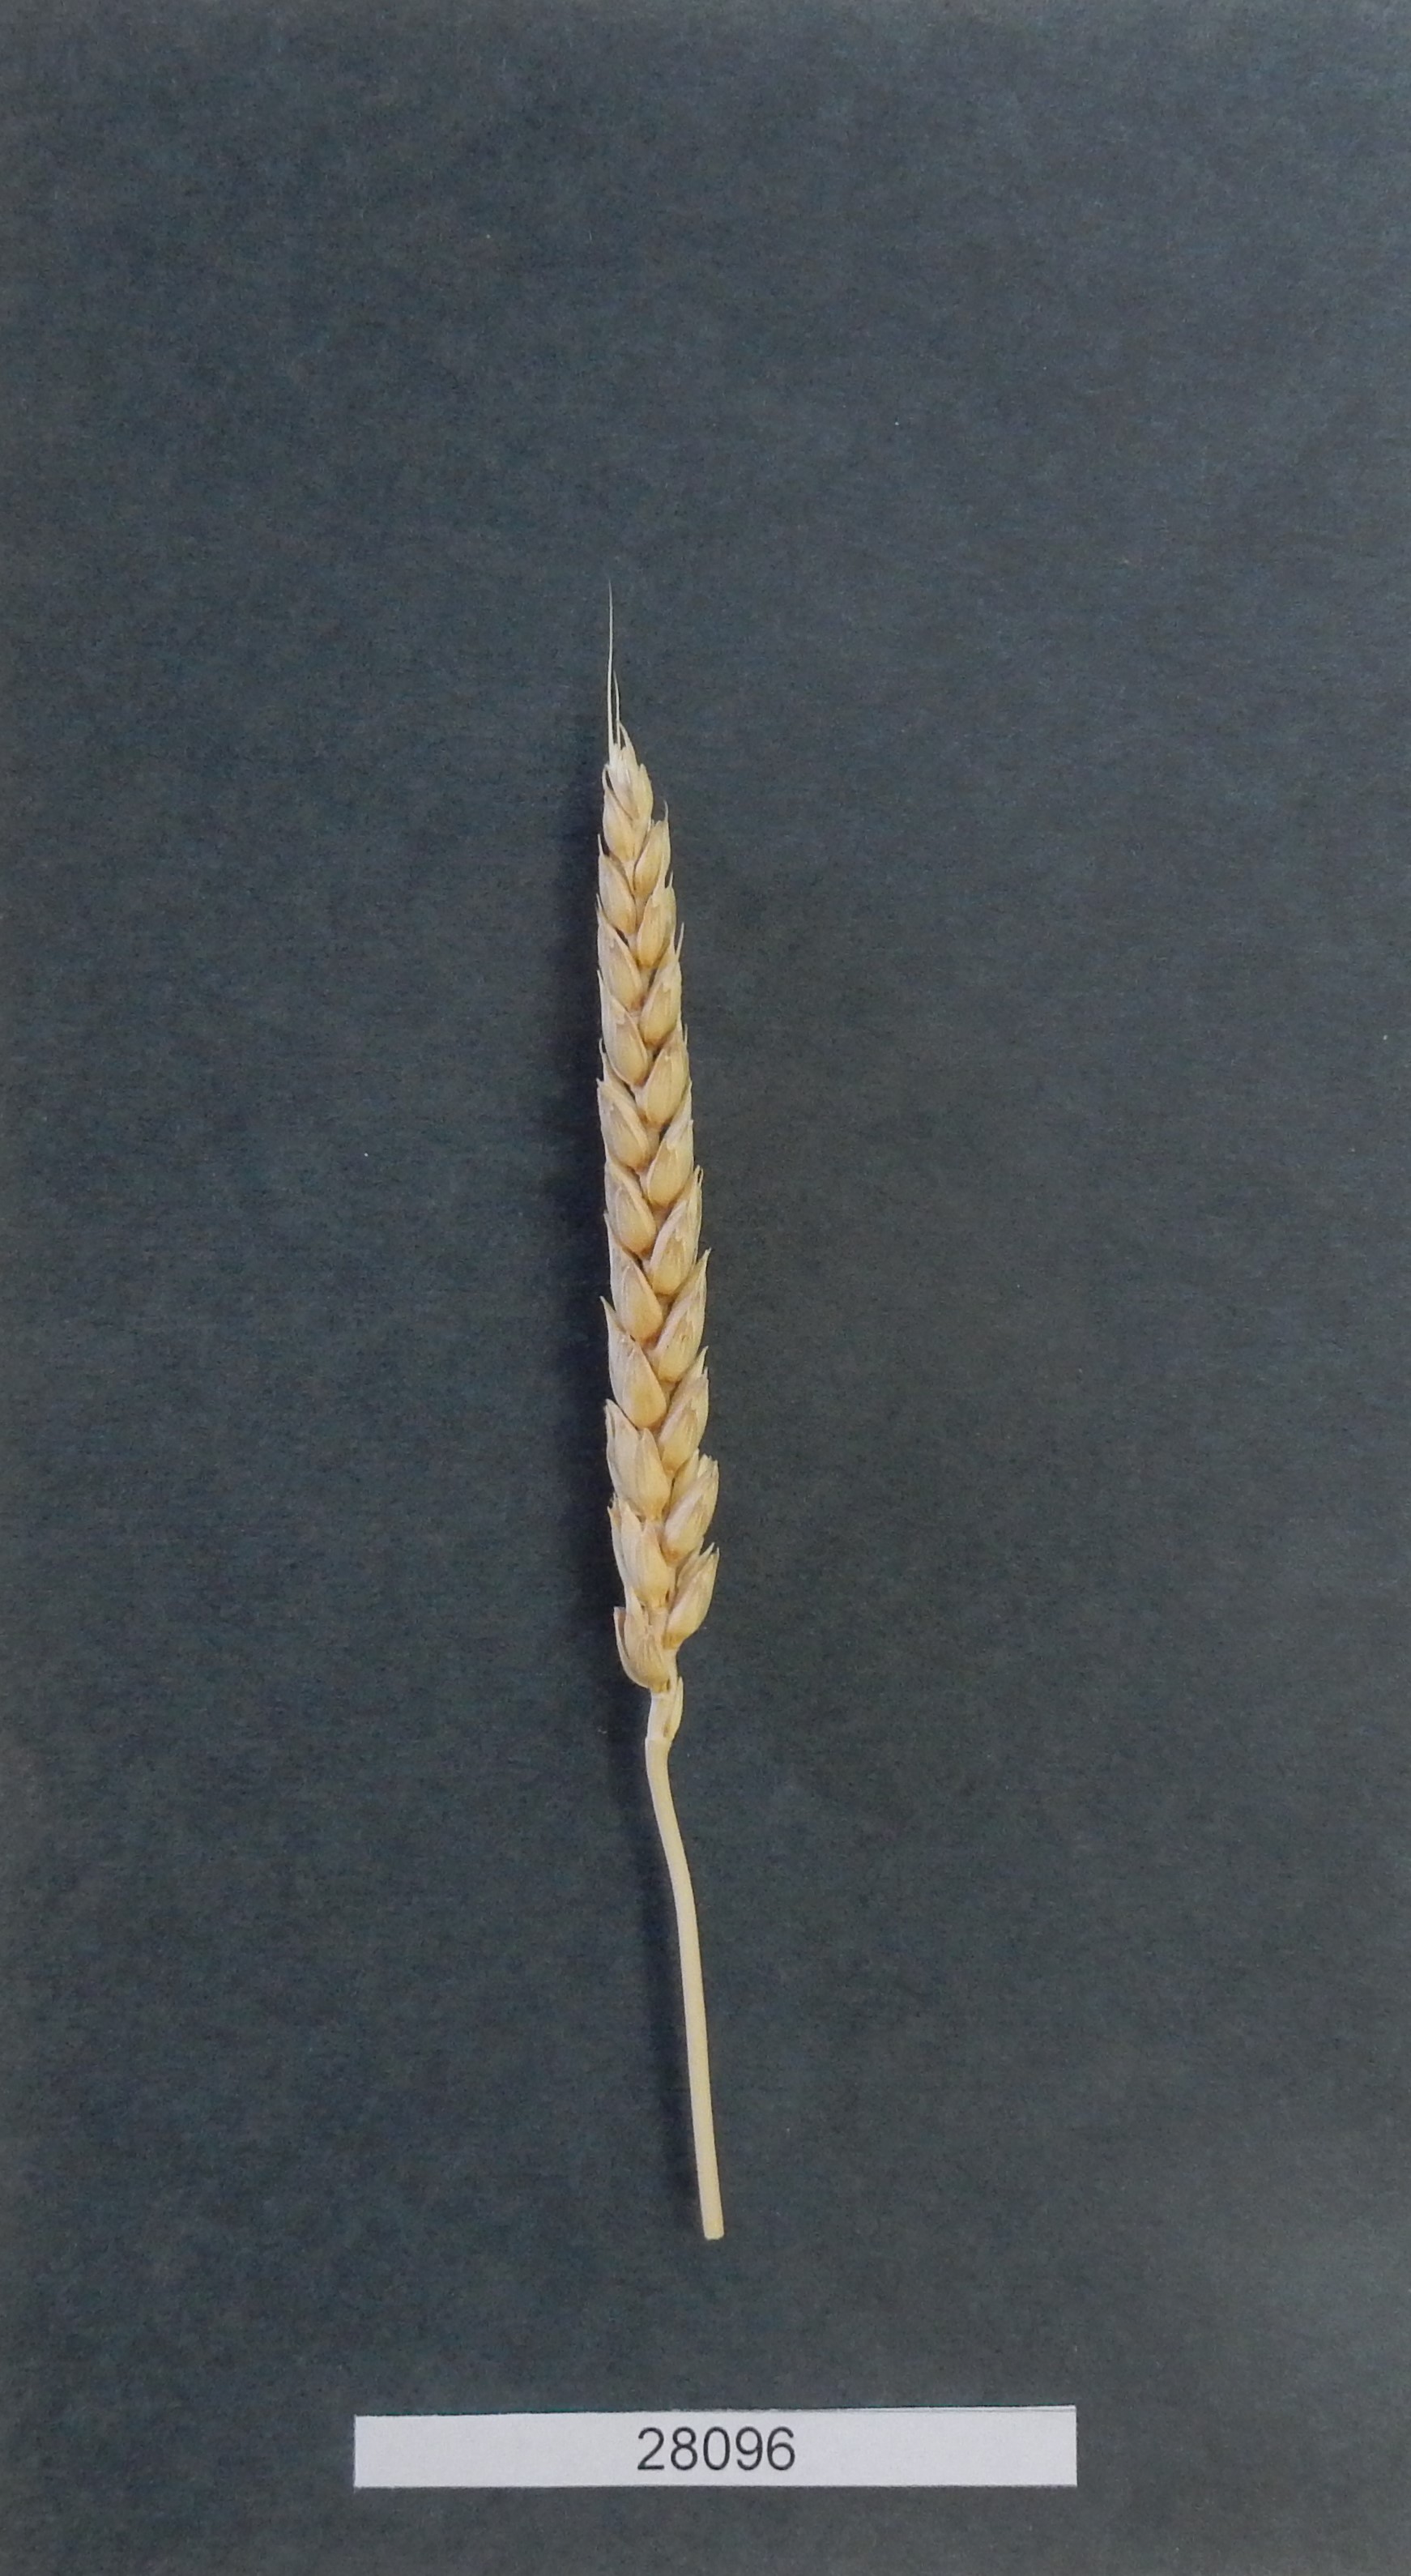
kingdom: Plantae
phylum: Tracheophyta
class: Liliopsida
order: Poales
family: Poaceae
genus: Triticum
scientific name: Triticum aestivum
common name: Common wheat
